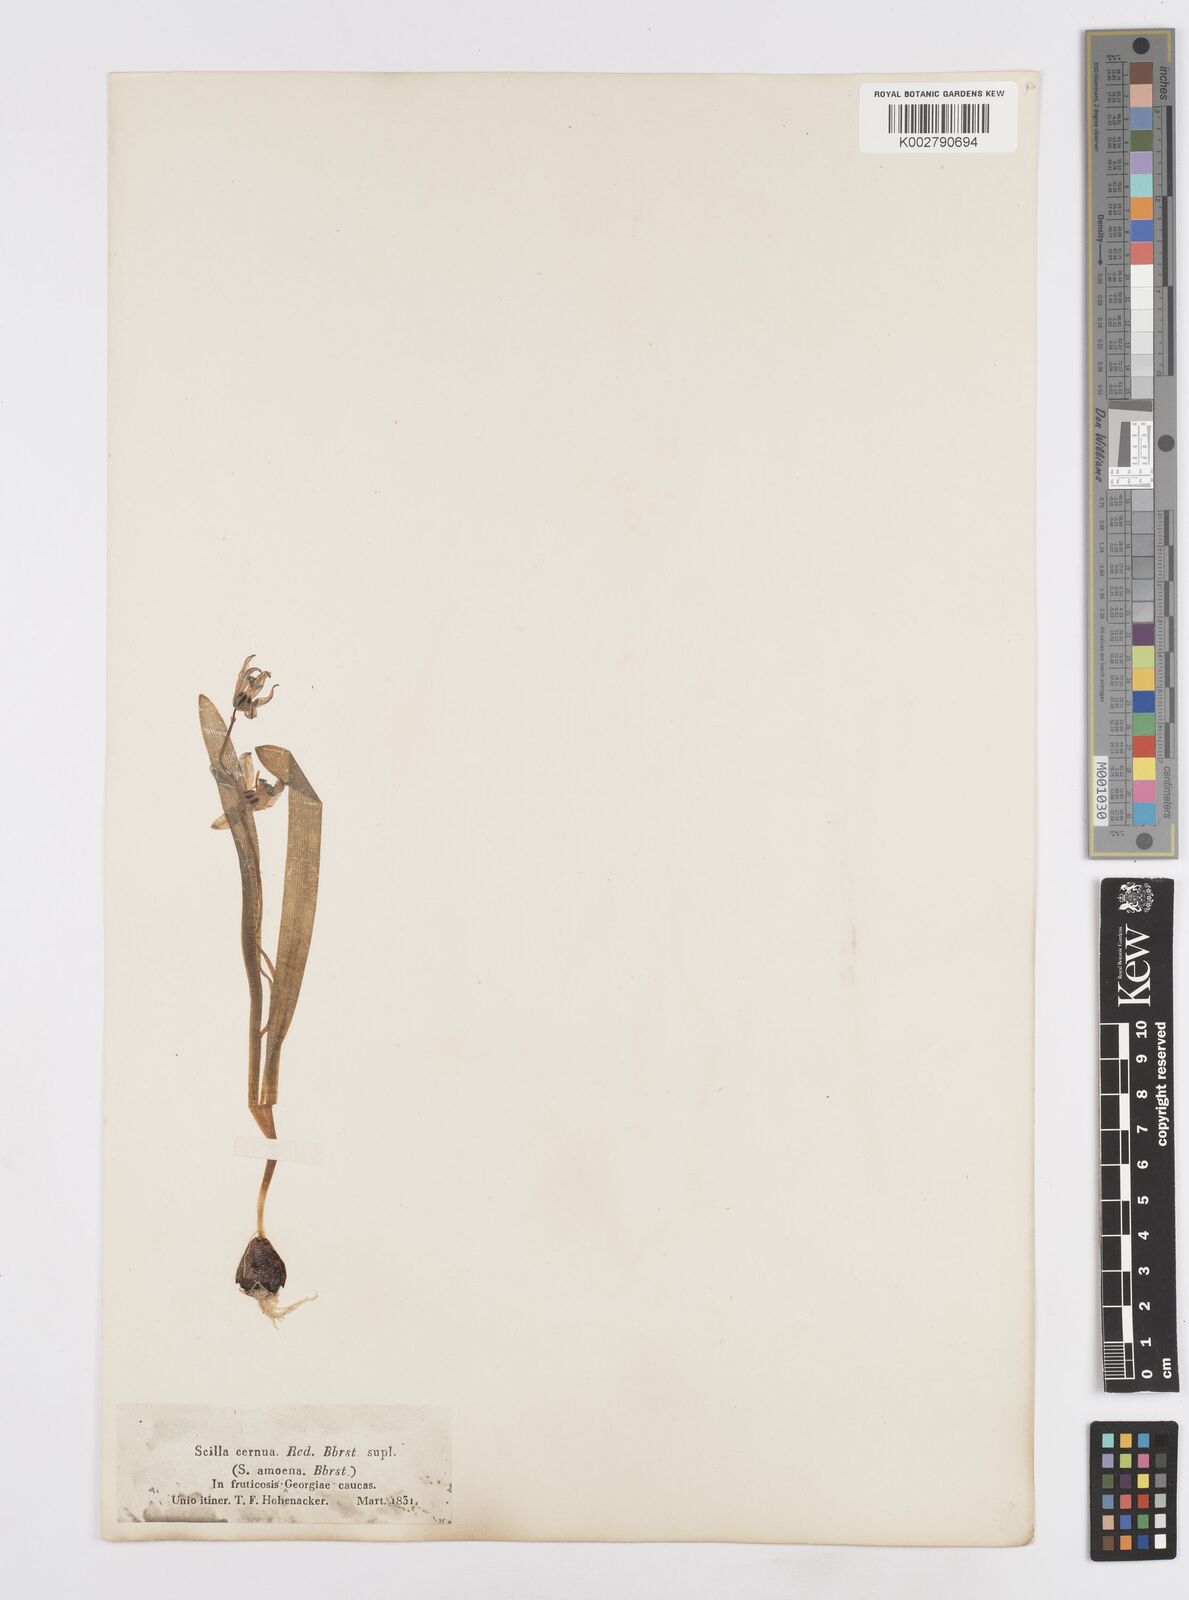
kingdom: Plantae
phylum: Tracheophyta
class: Liliopsida
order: Asparagales
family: Asparagaceae
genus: Scilla
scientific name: Scilla siberica
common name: Siberian squill
